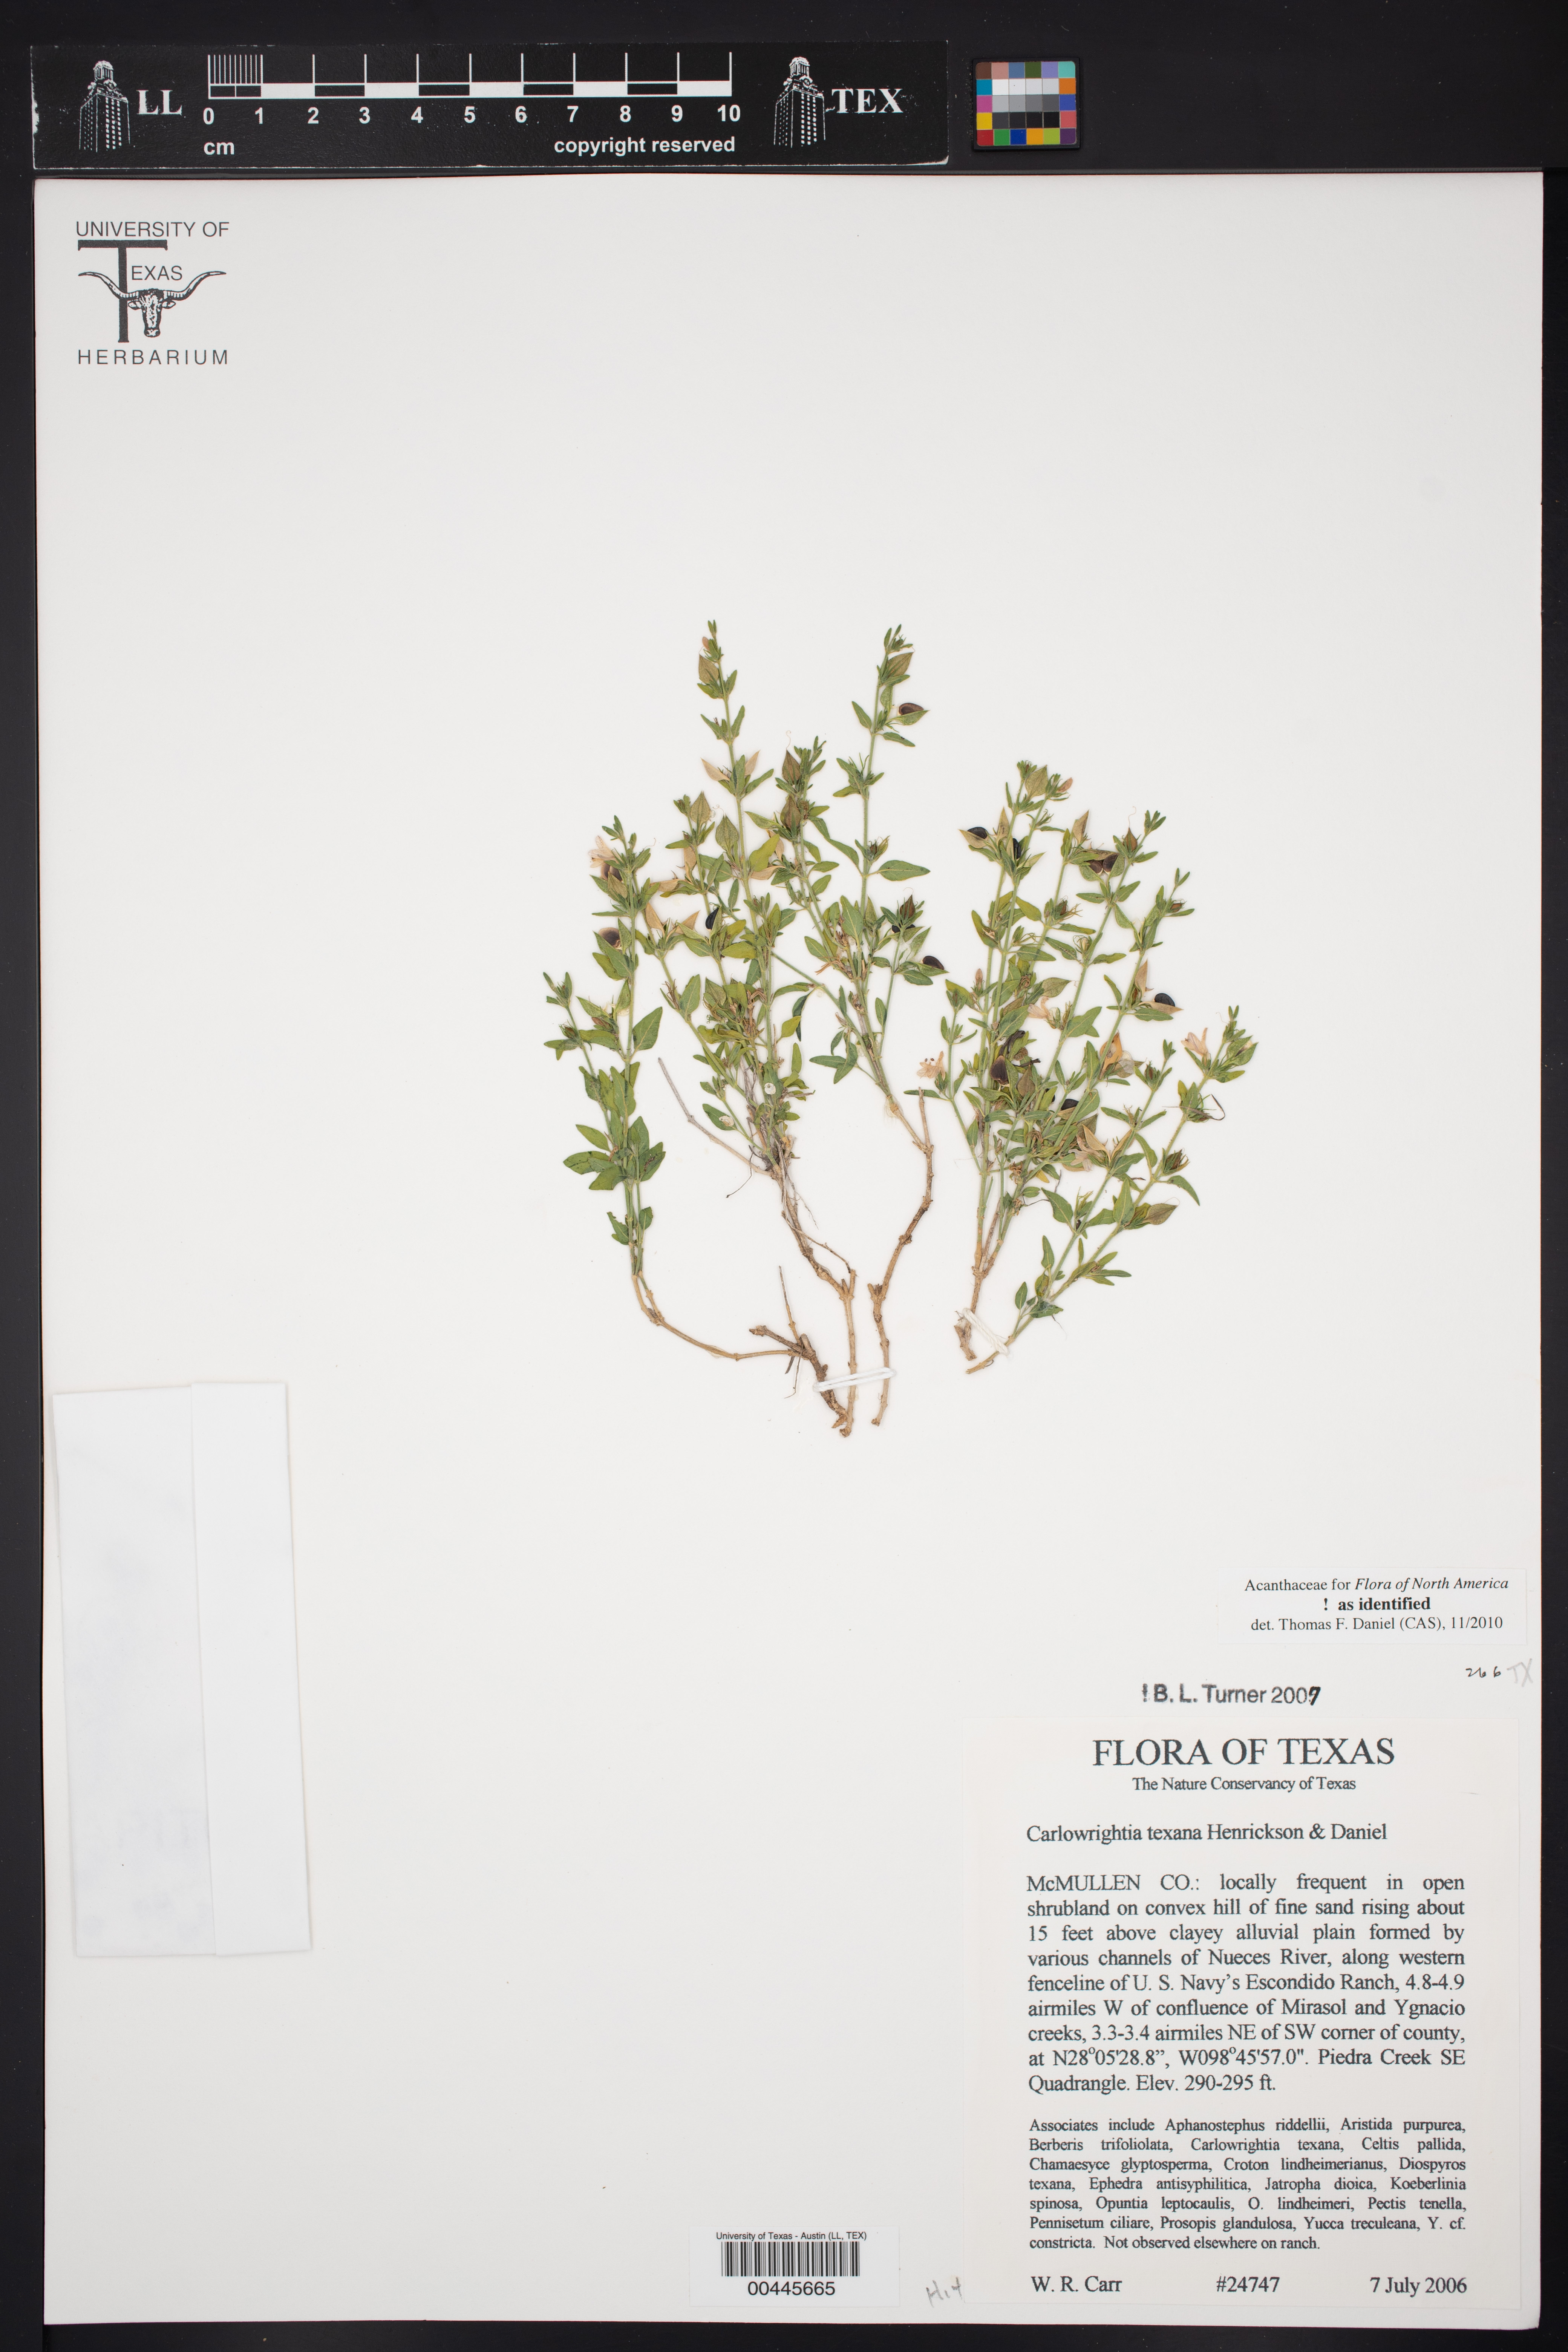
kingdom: Plantae
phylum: Tracheophyta
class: Magnoliopsida
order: Lamiales
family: Acanthaceae
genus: Carlowrightia
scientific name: Carlowrightia texana
